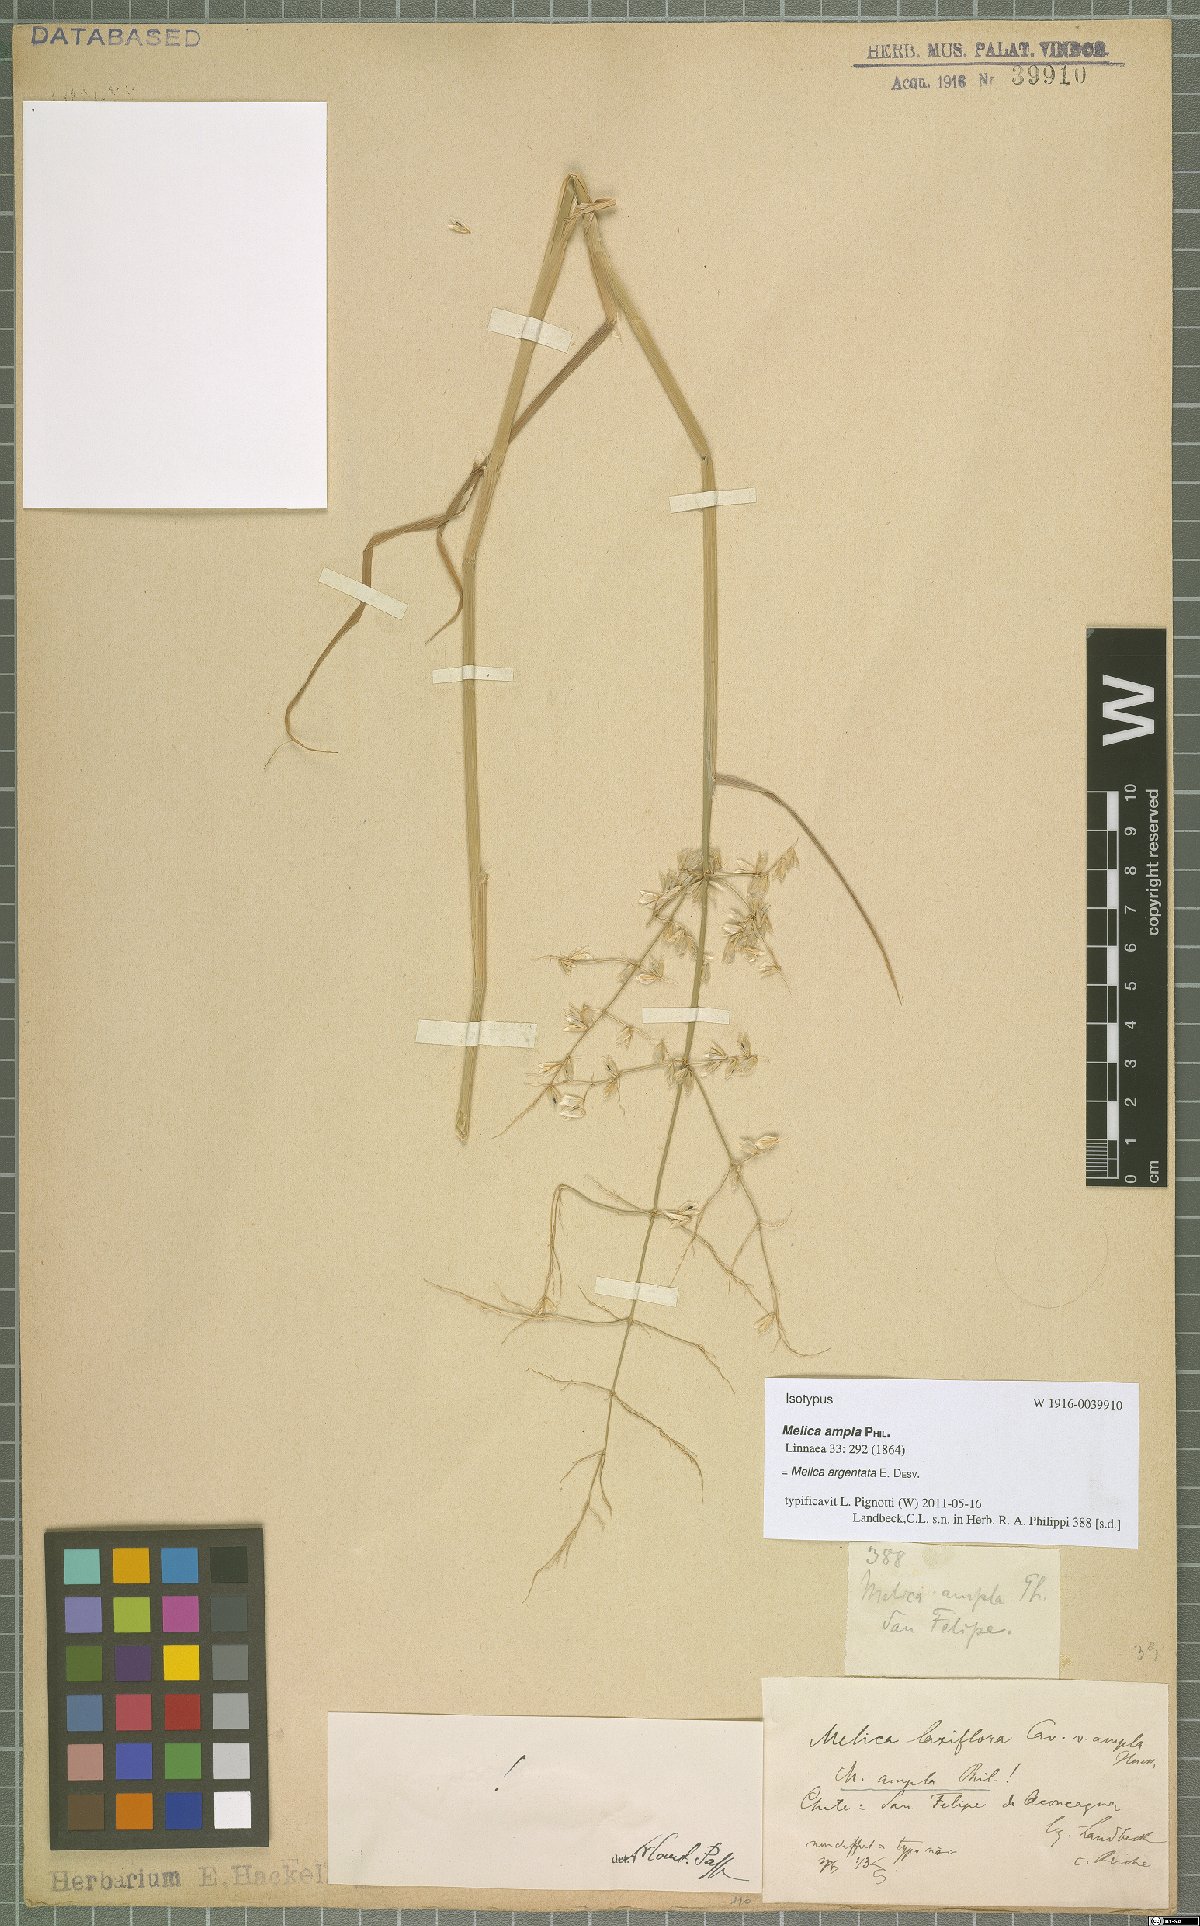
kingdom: Plantae
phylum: Tracheophyta
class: Liliopsida
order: Poales
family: Poaceae
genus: Melica
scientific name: Melica argentata
